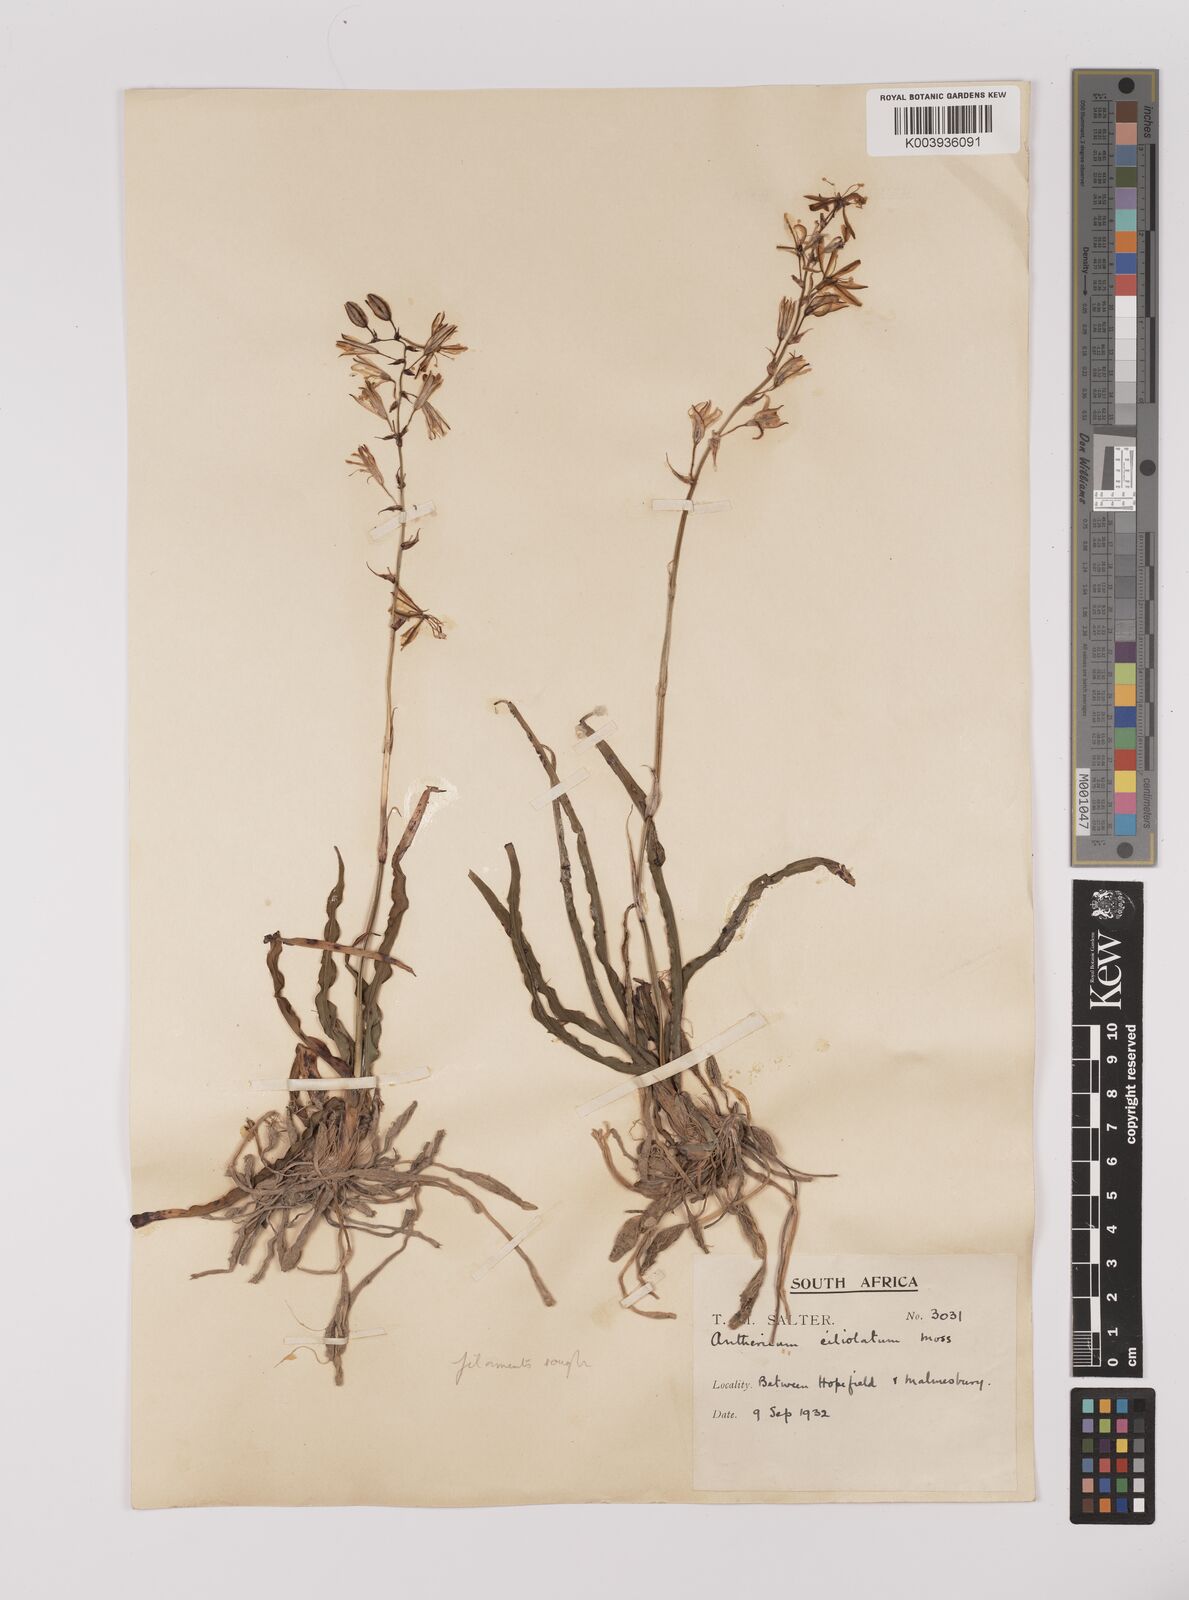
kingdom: Plantae
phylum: Tracheophyta
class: Liliopsida
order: Asparagales
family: Asparagaceae
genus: Chlorophytum
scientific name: Chlorophytum triflorum
